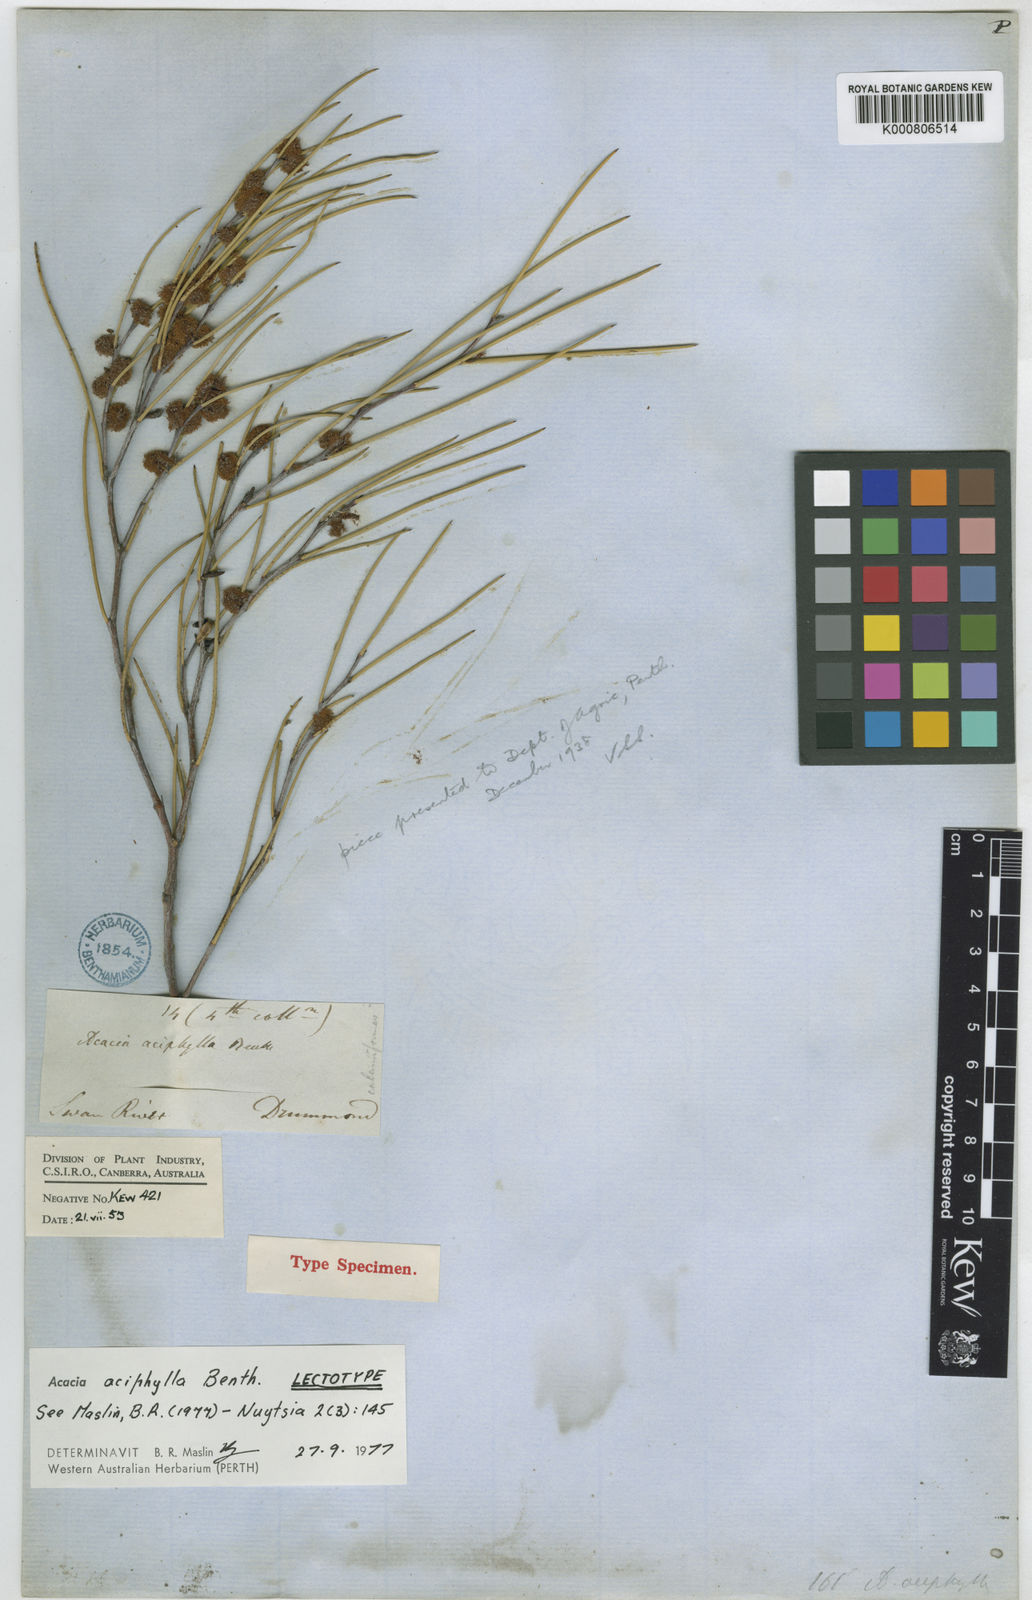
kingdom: Plantae
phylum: Tracheophyta
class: Magnoliopsida
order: Fabales
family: Fabaceae
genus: Acacia
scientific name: Acacia aciphylla
